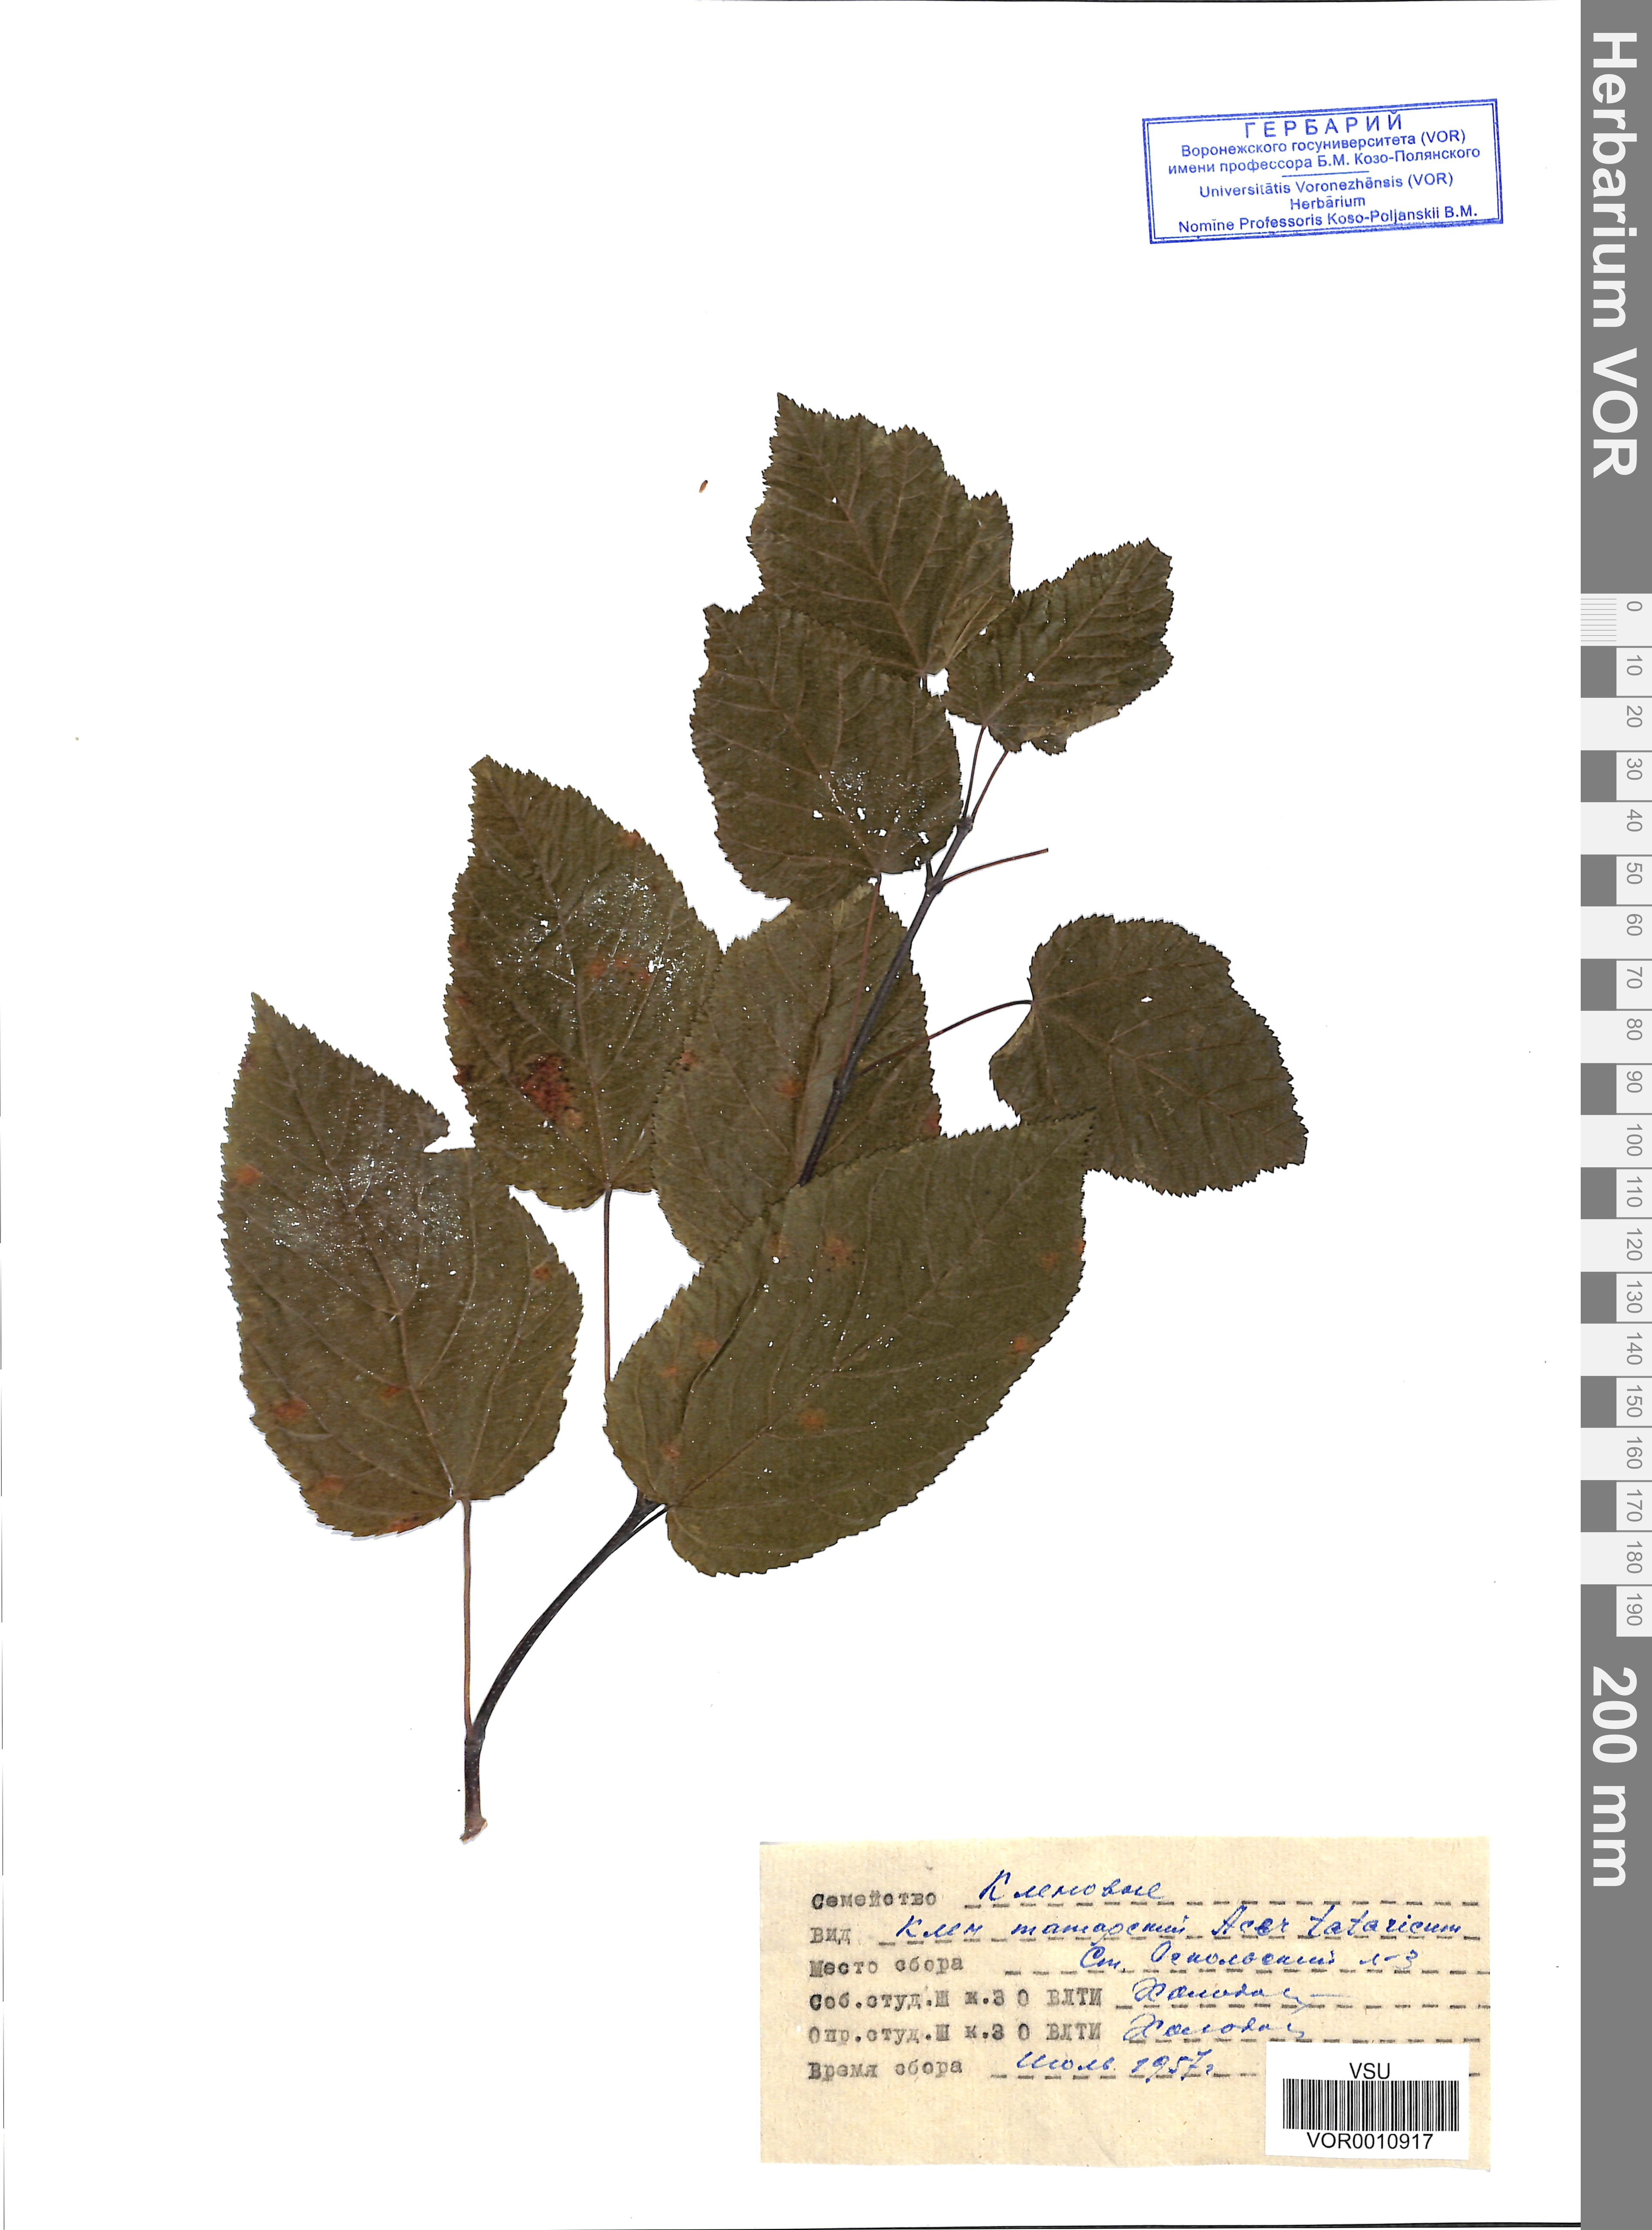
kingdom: Plantae
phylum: Tracheophyta
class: Magnoliopsida
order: Sapindales
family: Sapindaceae
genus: Acer
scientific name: Acer tataricum
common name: Tartar maple
